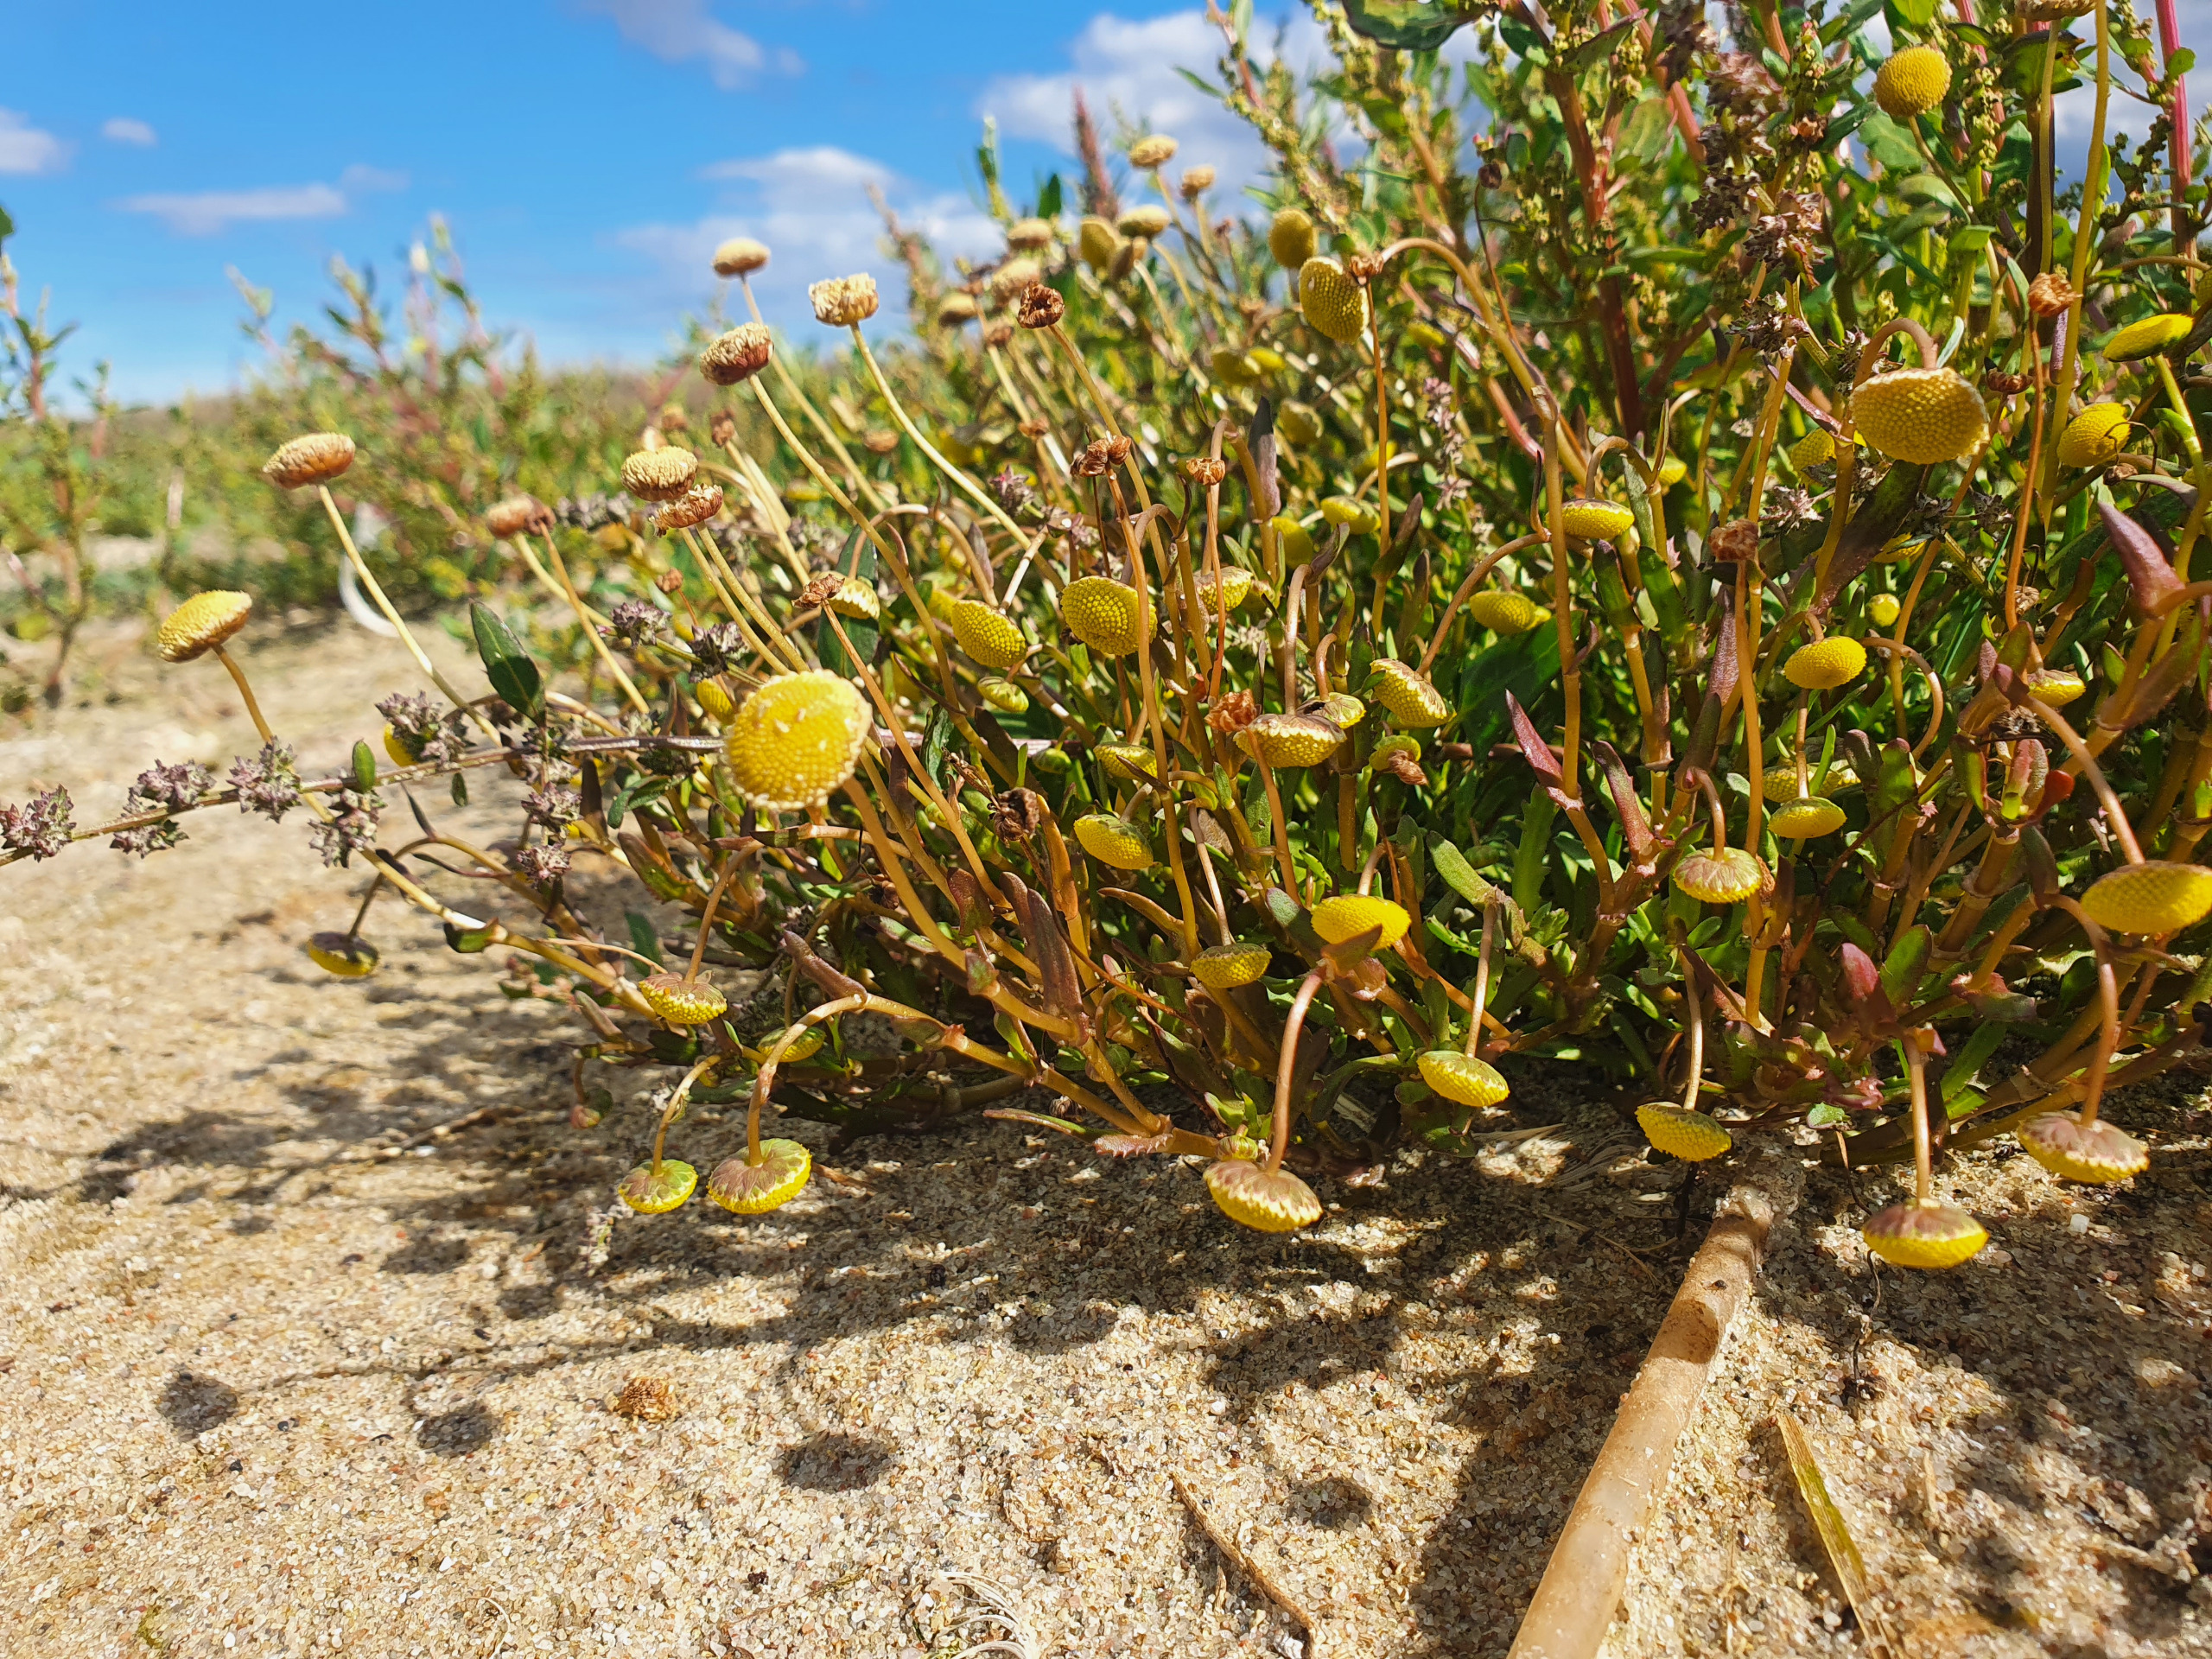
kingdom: Plantae
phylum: Tracheophyta
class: Magnoliopsida
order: Asterales
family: Asteraceae
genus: Cotula
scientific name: Cotula coronopifolia
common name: Firkløft
